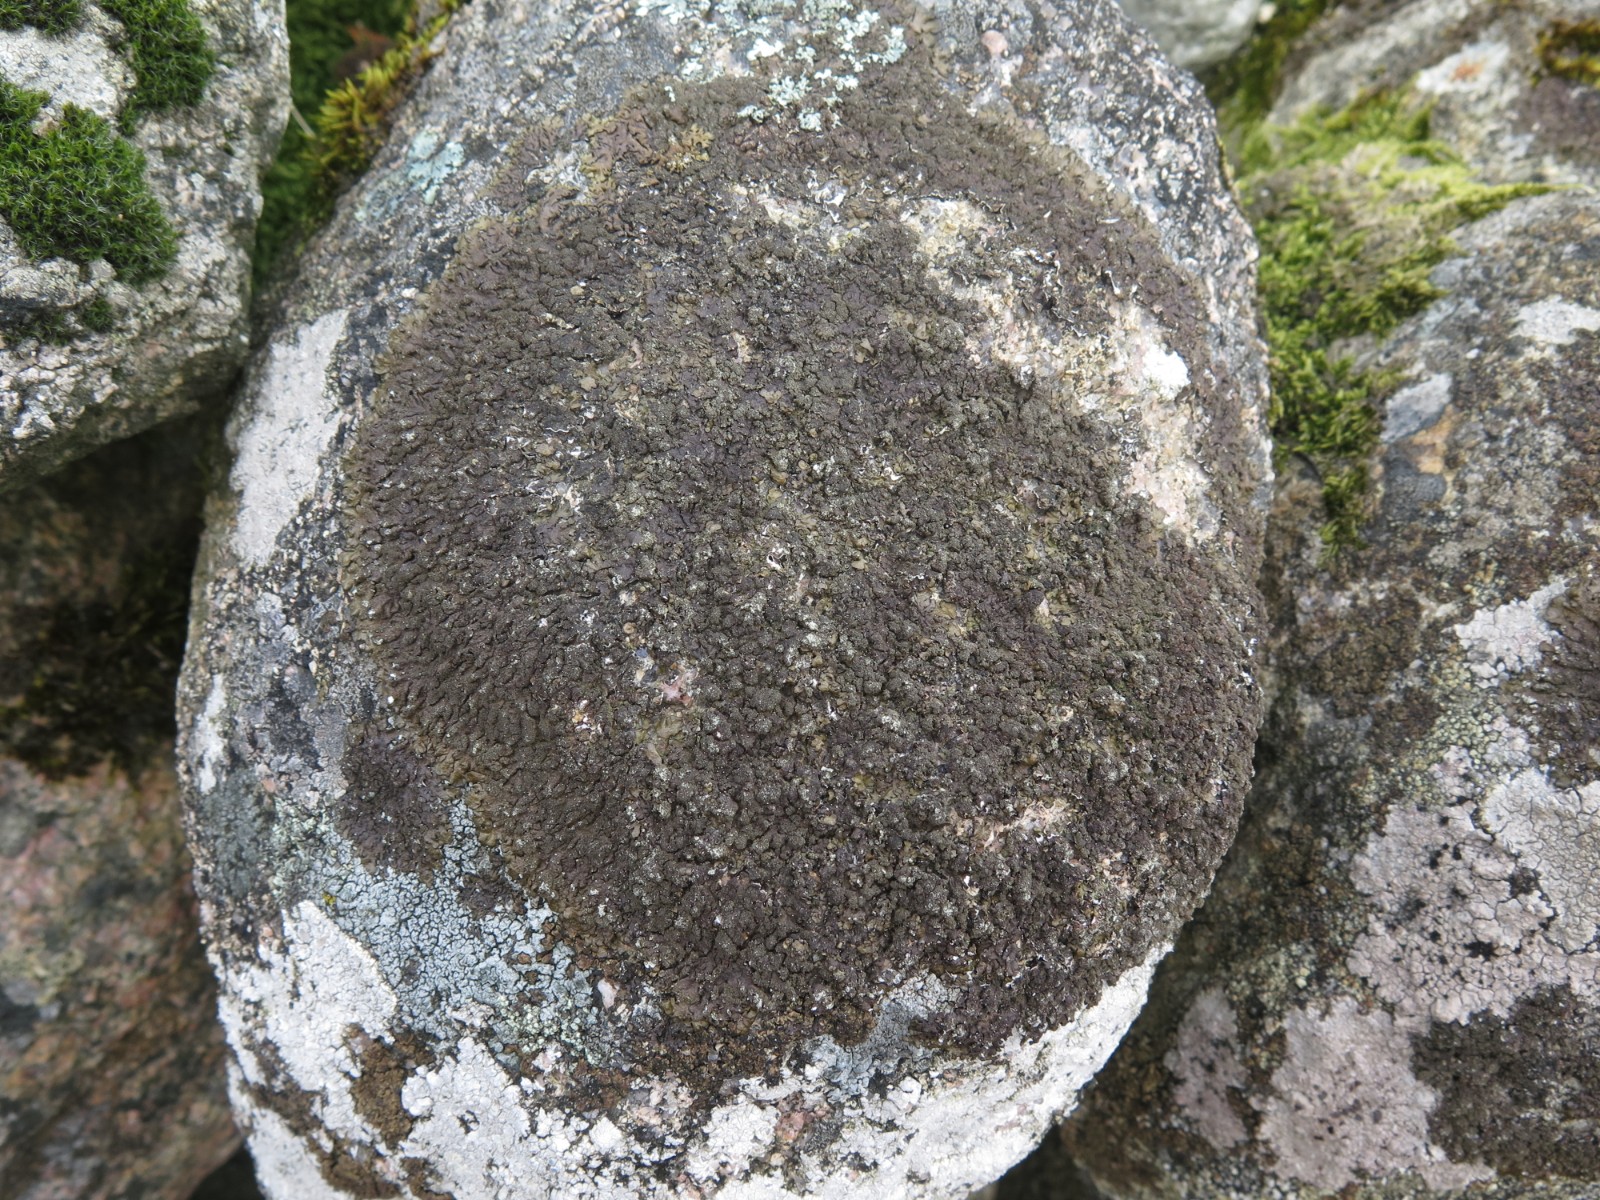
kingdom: Fungi
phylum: Ascomycota
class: Lecanoromycetes
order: Lecanorales
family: Parmeliaceae
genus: Xanthoparmelia
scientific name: Xanthoparmelia verruculifera
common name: småknoppet skållav
